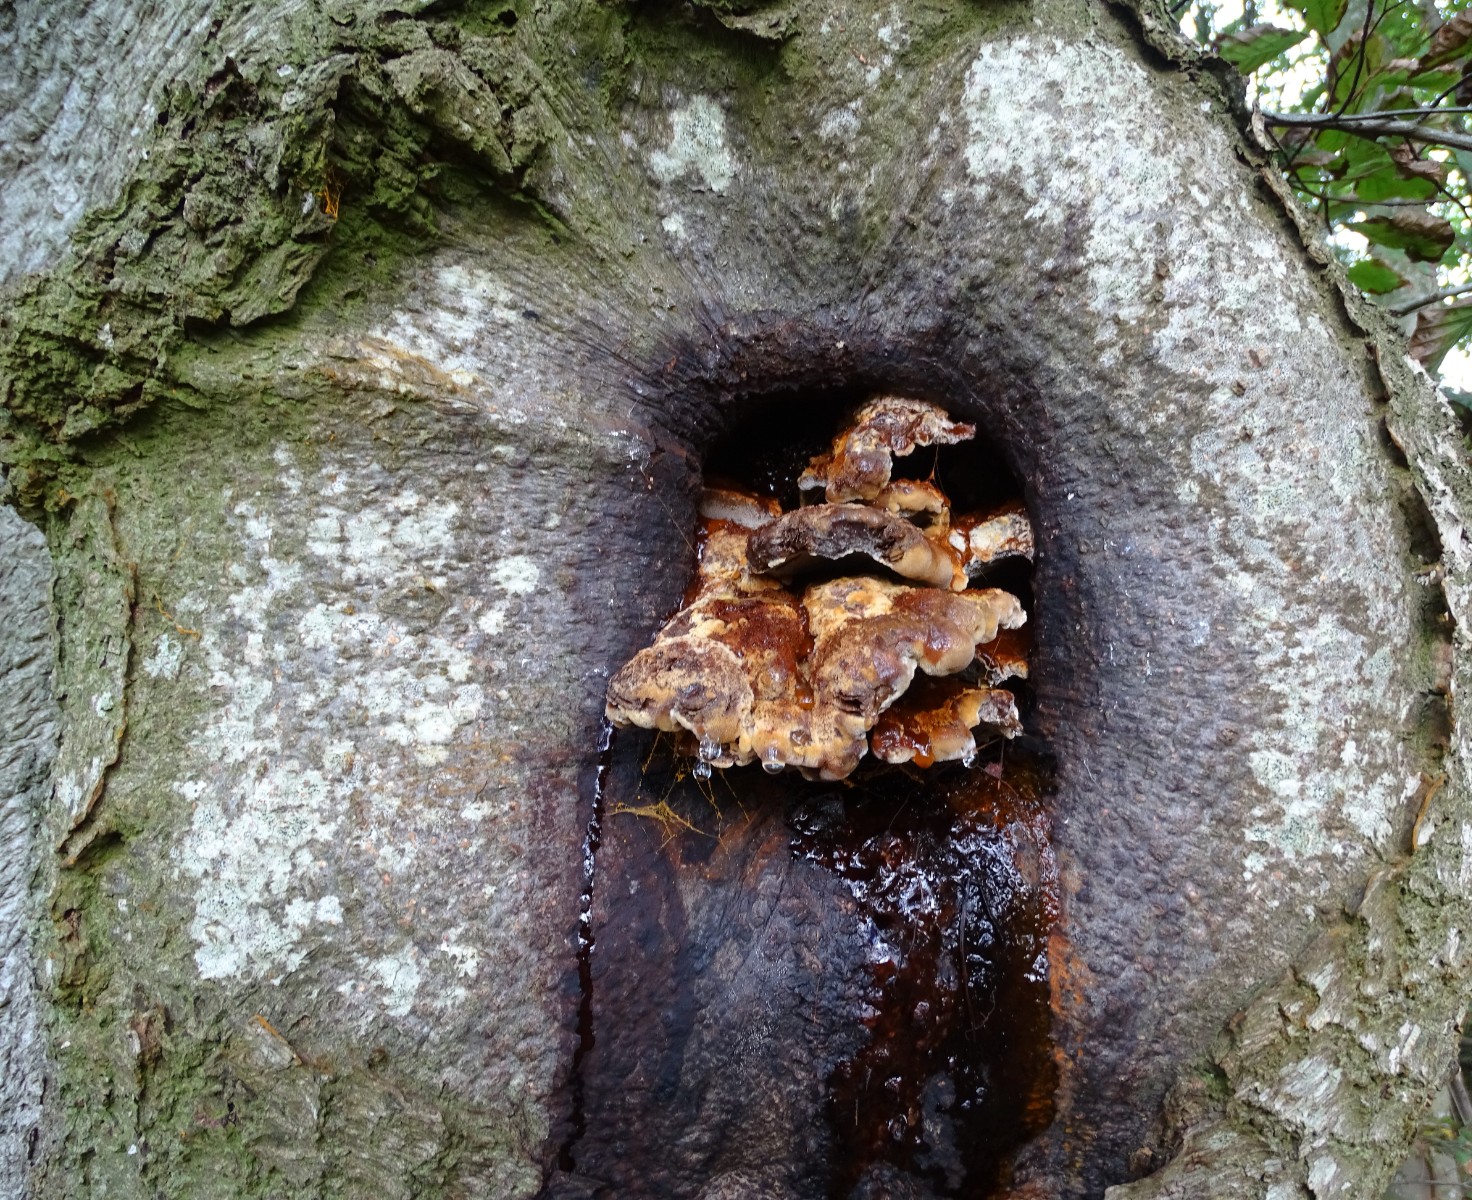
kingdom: Fungi
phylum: Basidiomycota
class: Agaricomycetes
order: Hymenochaetales
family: Hymenochaetaceae
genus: Inonotus
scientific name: Inonotus cuticularis
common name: kroghåret spejlporesvamp
